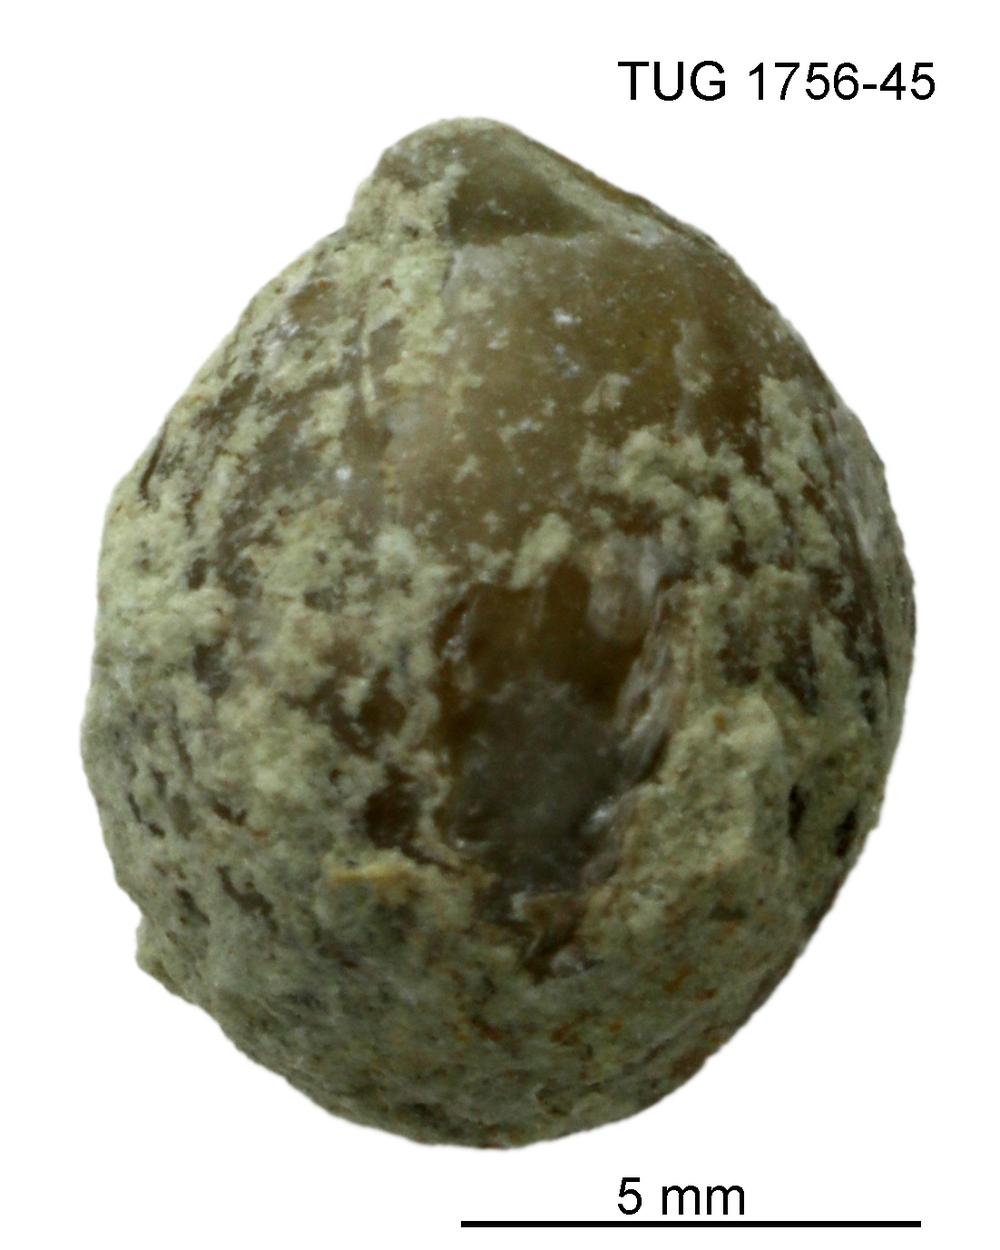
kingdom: Animalia
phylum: Brachiopoda
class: Rhynchonellata
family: Dalmanellidae
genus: Resserella
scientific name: Resserella Orthis canalis
